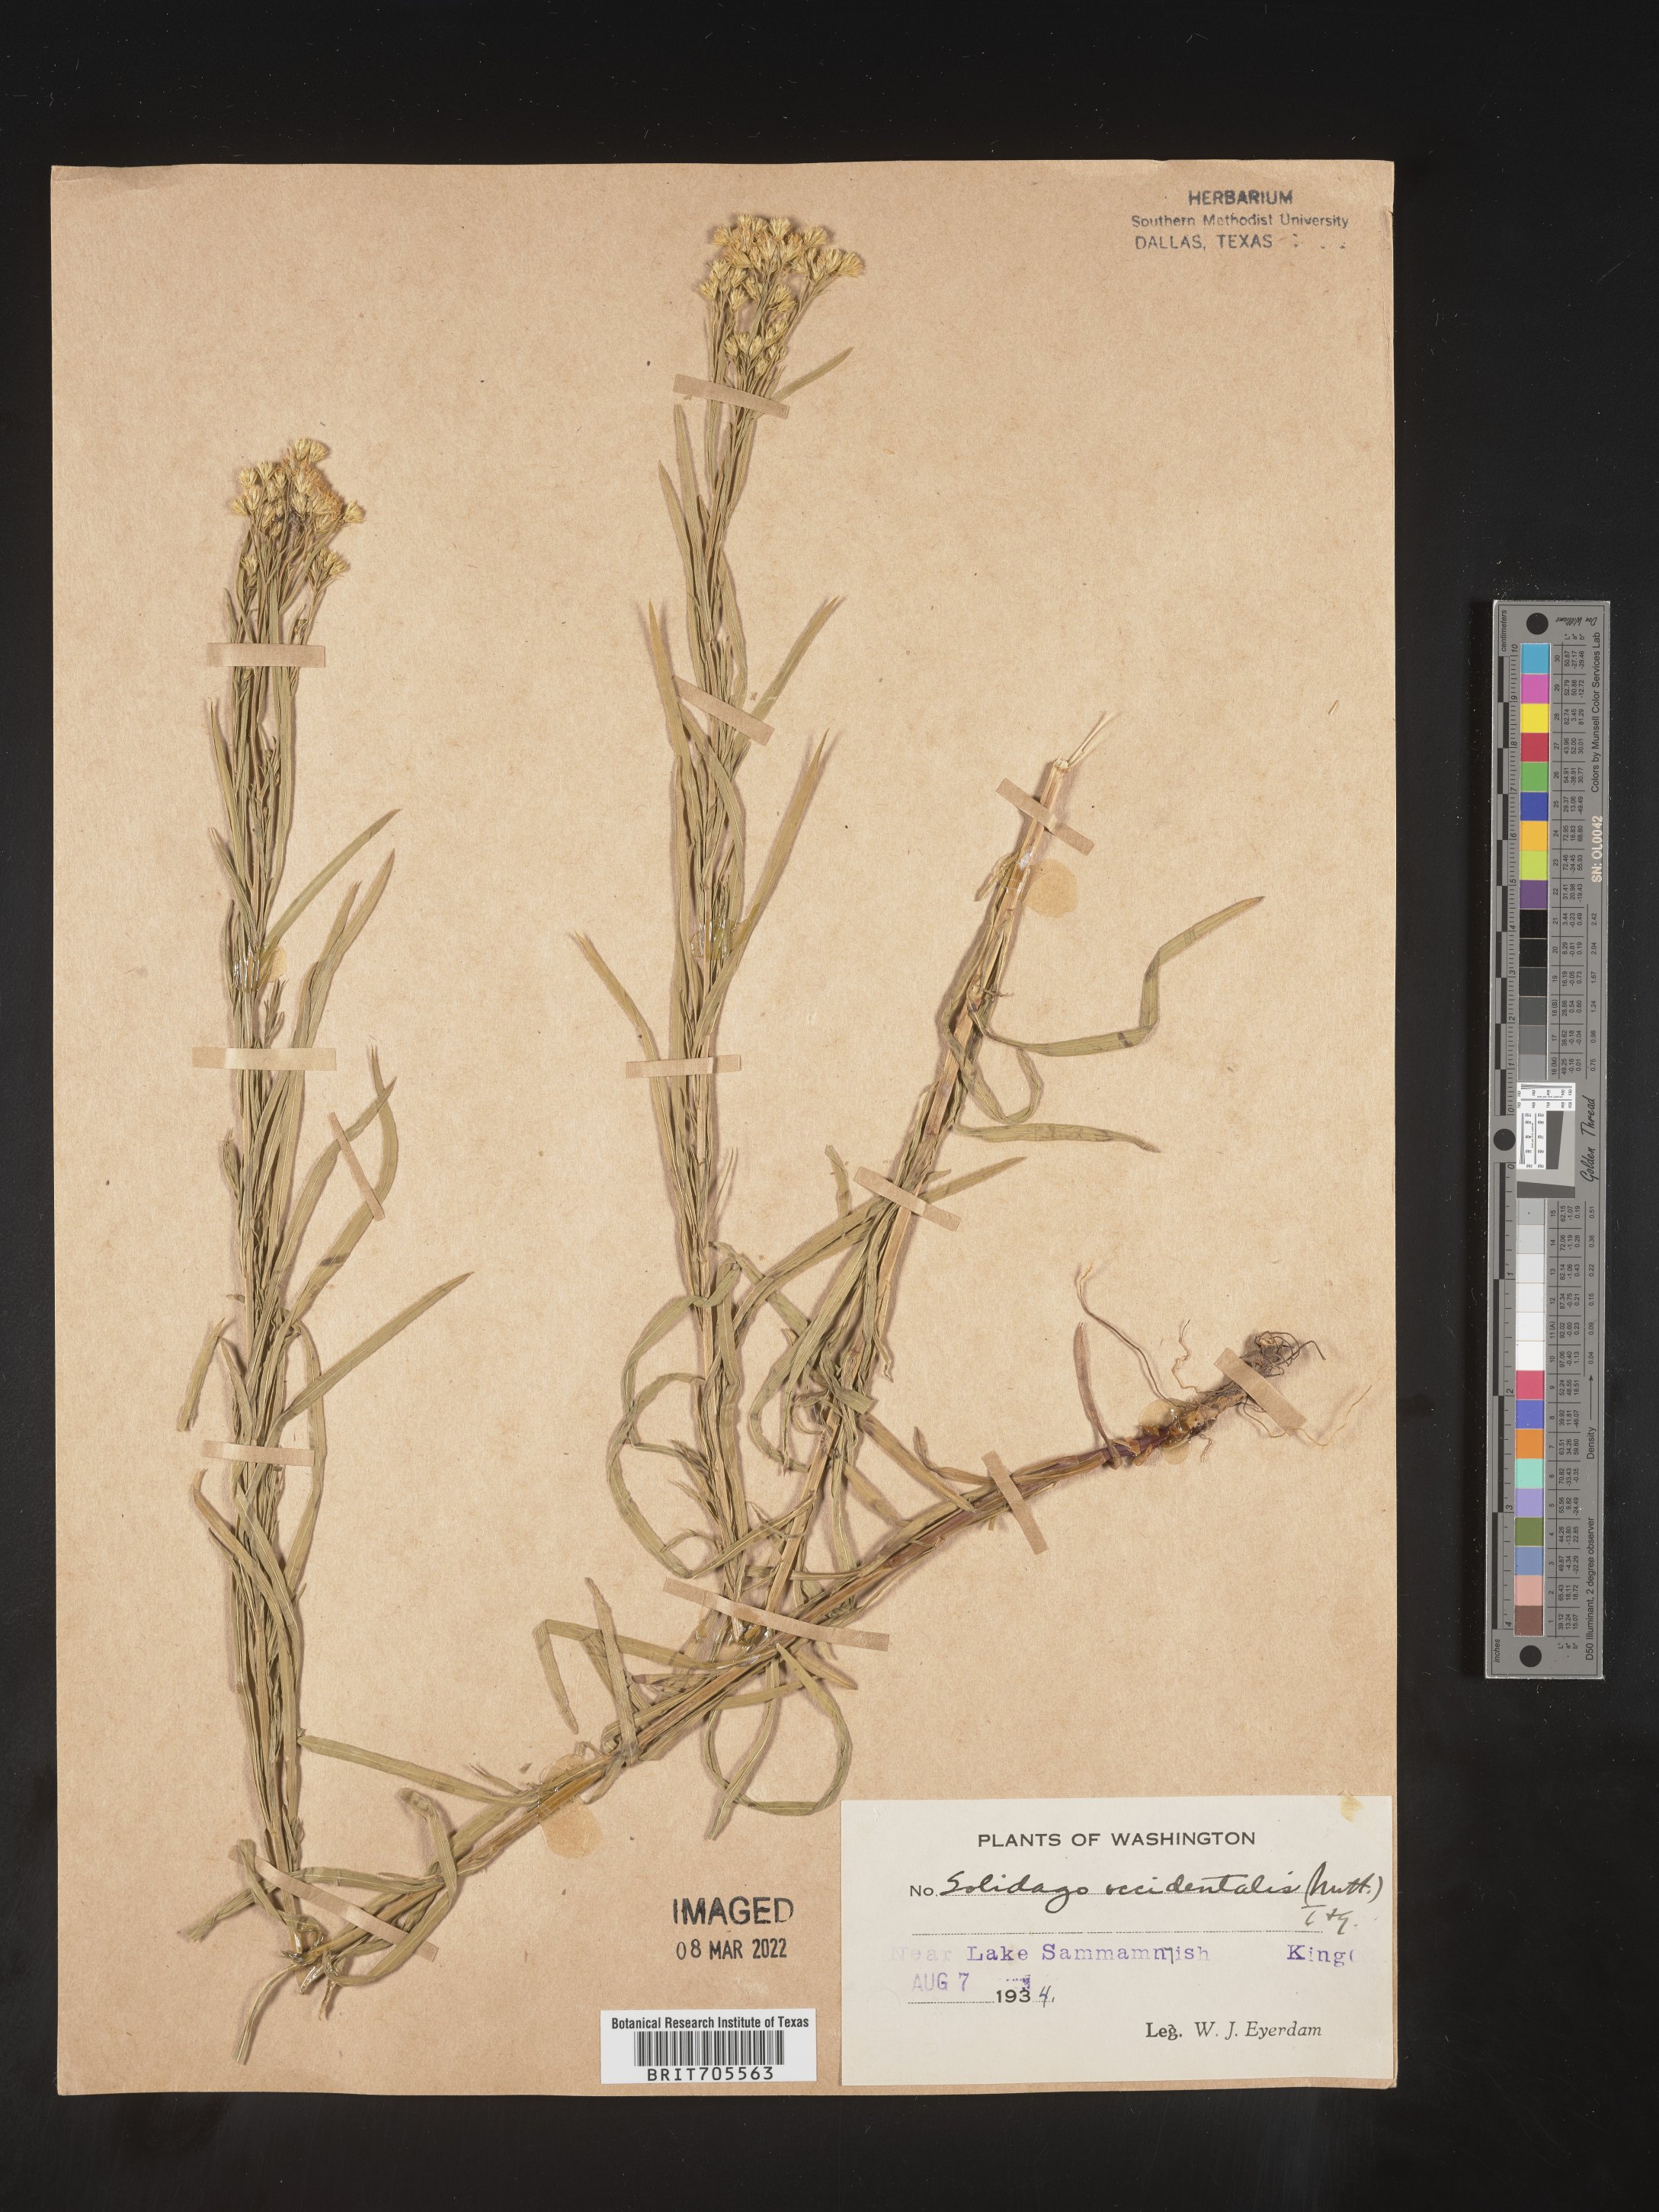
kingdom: Plantae
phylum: Tracheophyta
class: Magnoliopsida
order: Asterales
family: Asteraceae
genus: Euthamia
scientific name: Euthamia occidentalis
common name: Western goldentop
